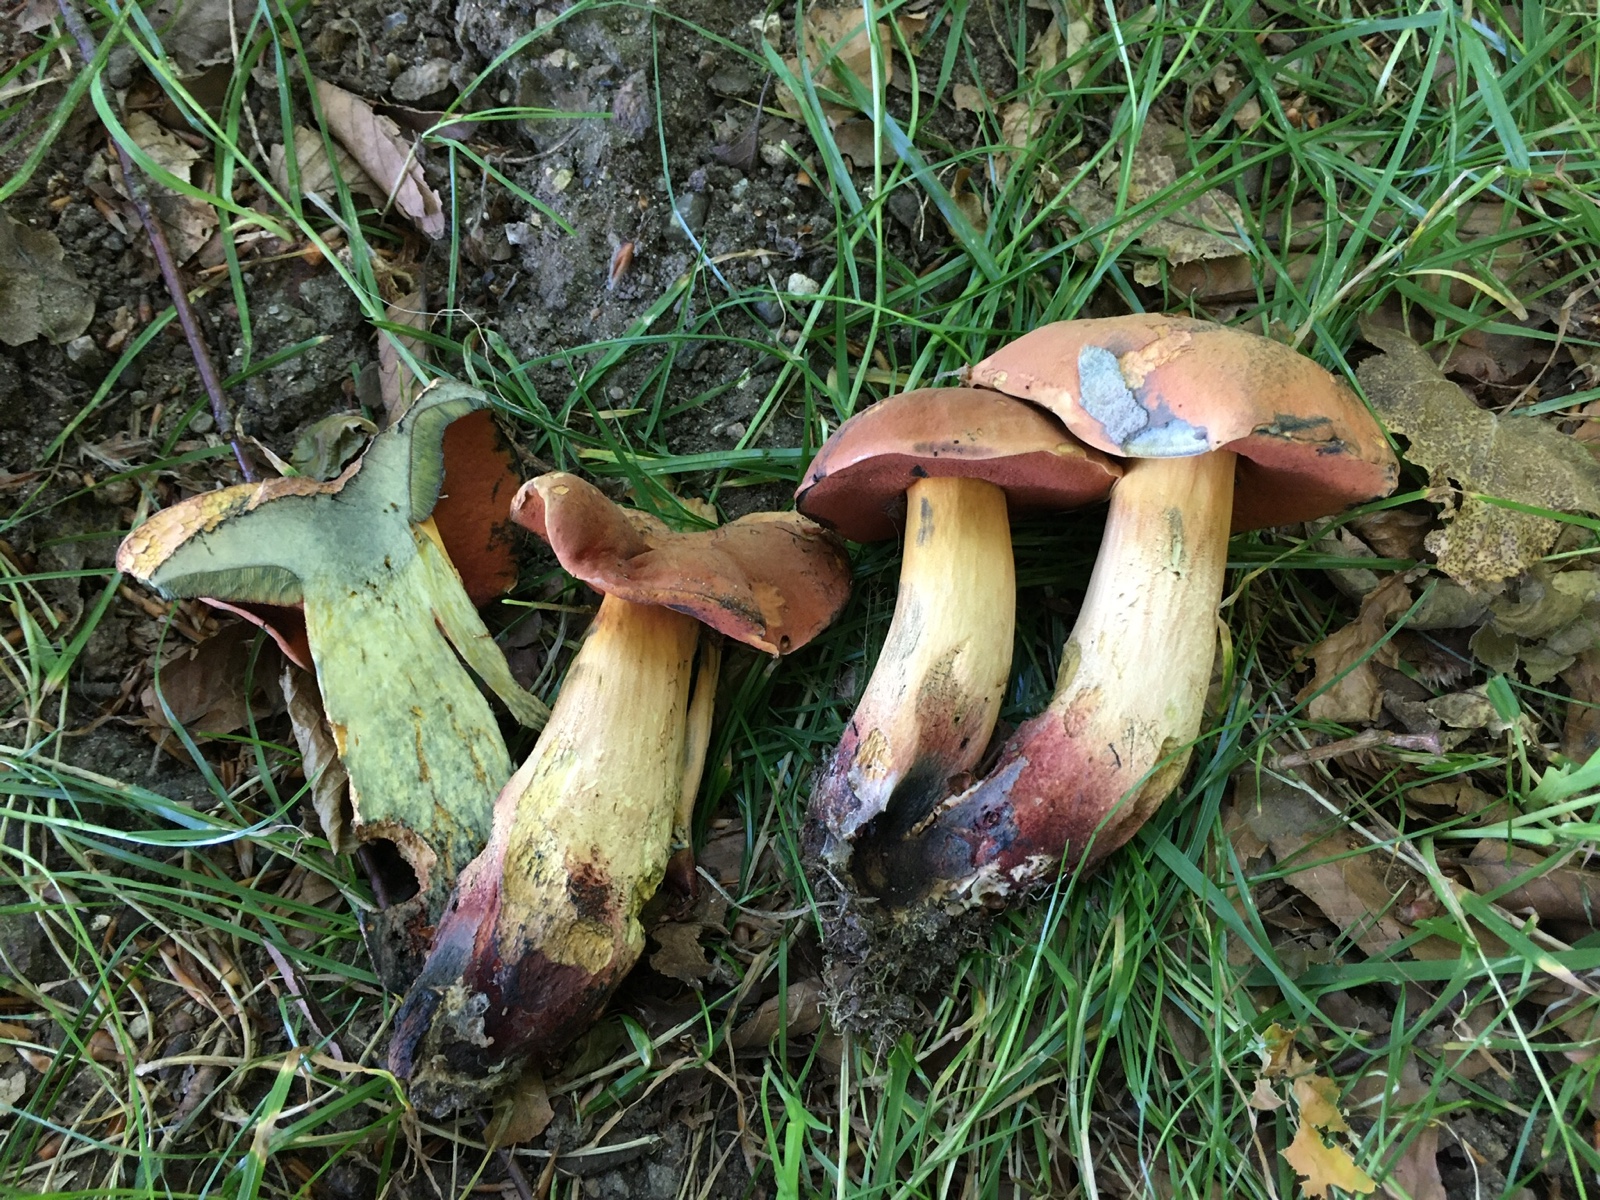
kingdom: Fungi
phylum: Basidiomycota
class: Agaricomycetes
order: Boletales
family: Boletaceae
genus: Suillellus
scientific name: Suillellus queletii
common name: glatstokket indigorørhat
